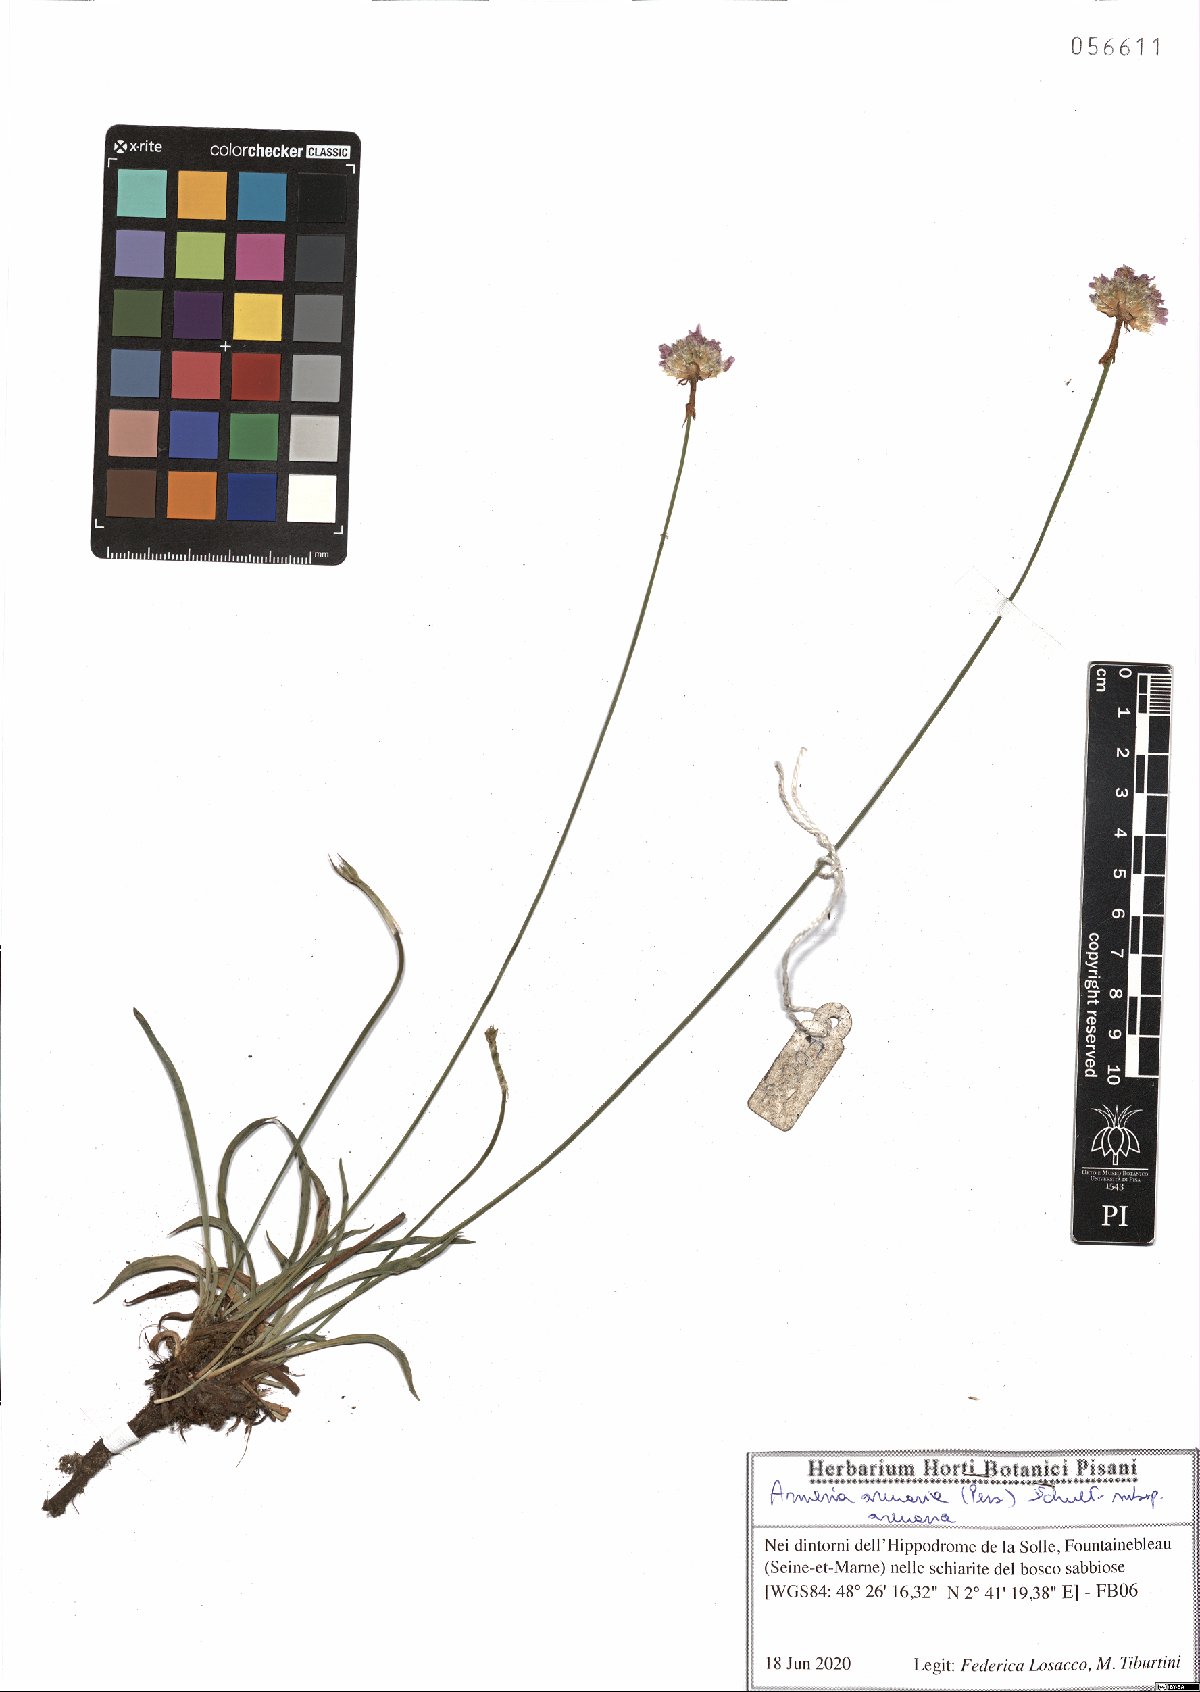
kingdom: Plantae
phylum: Tracheophyta
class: Magnoliopsida
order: Caryophyllales
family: Plumbaginaceae
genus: Armeria
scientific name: Armeria arenaria
